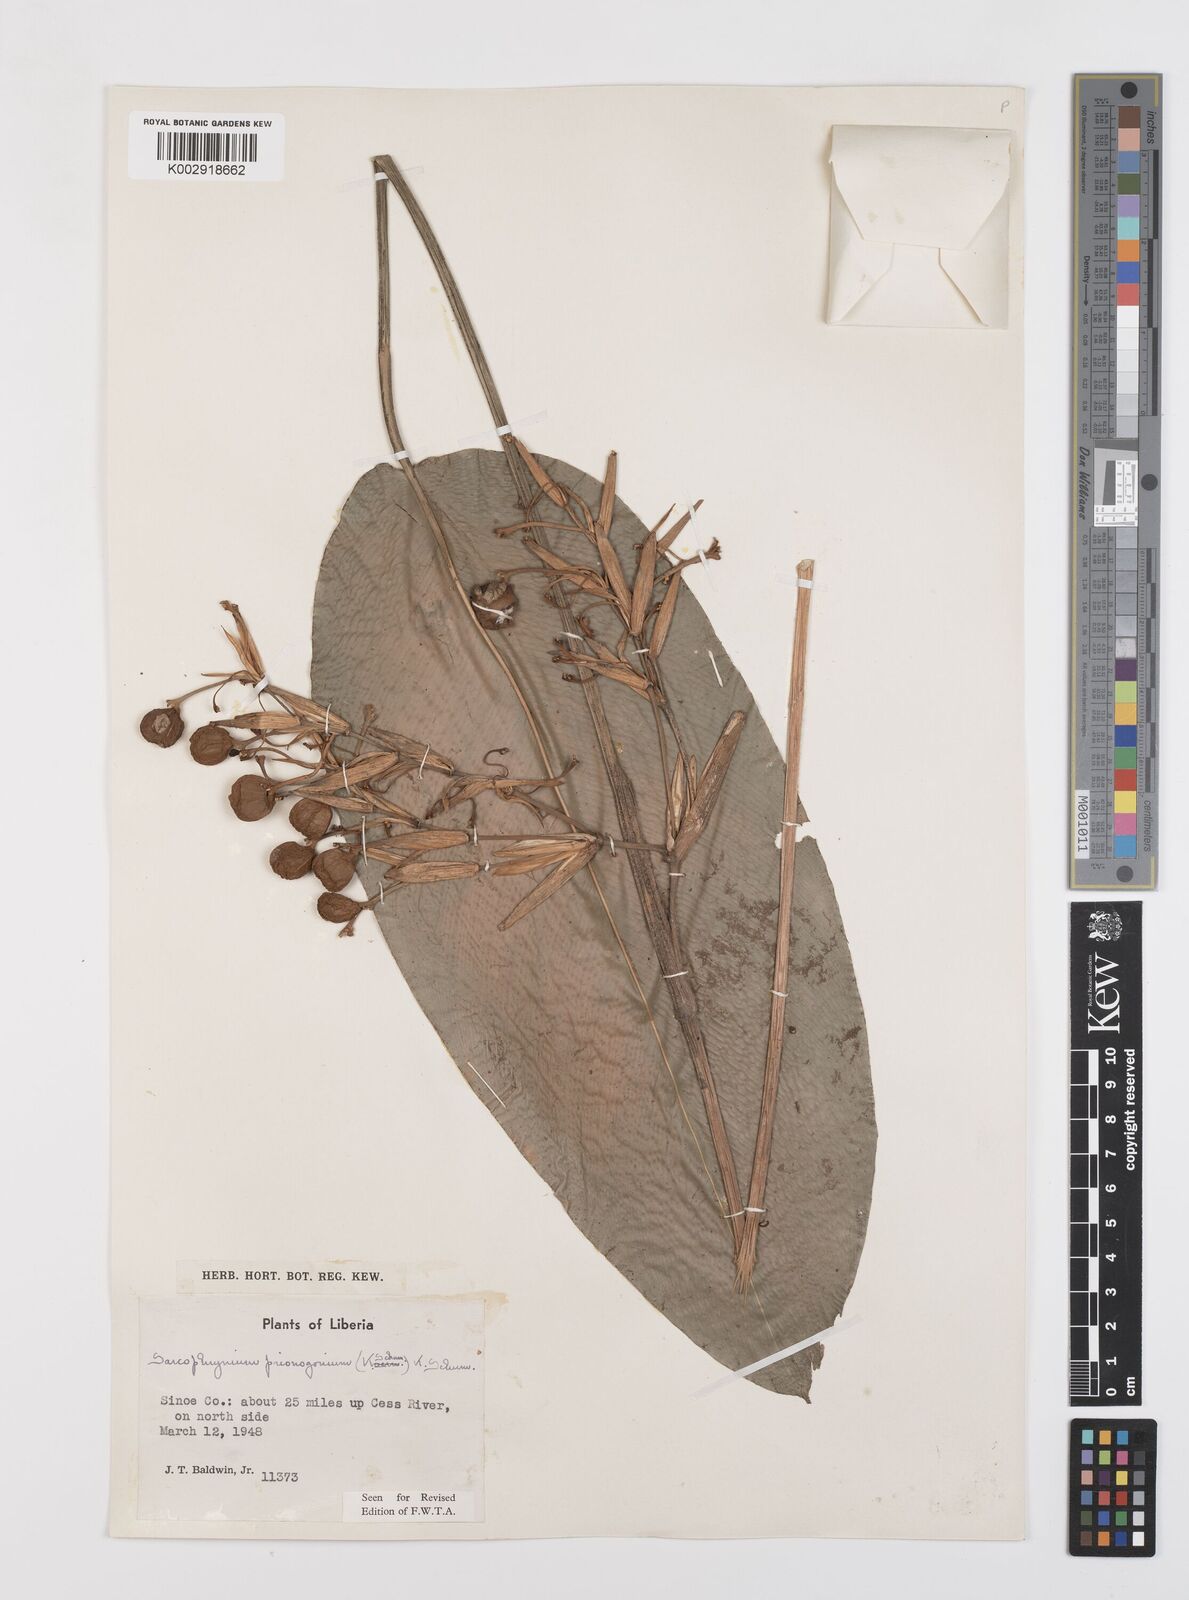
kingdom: Plantae
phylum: Tracheophyta
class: Liliopsida
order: Zingiberales
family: Marantaceae
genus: Sarcophrynium
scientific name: Sarcophrynium prionogonium
